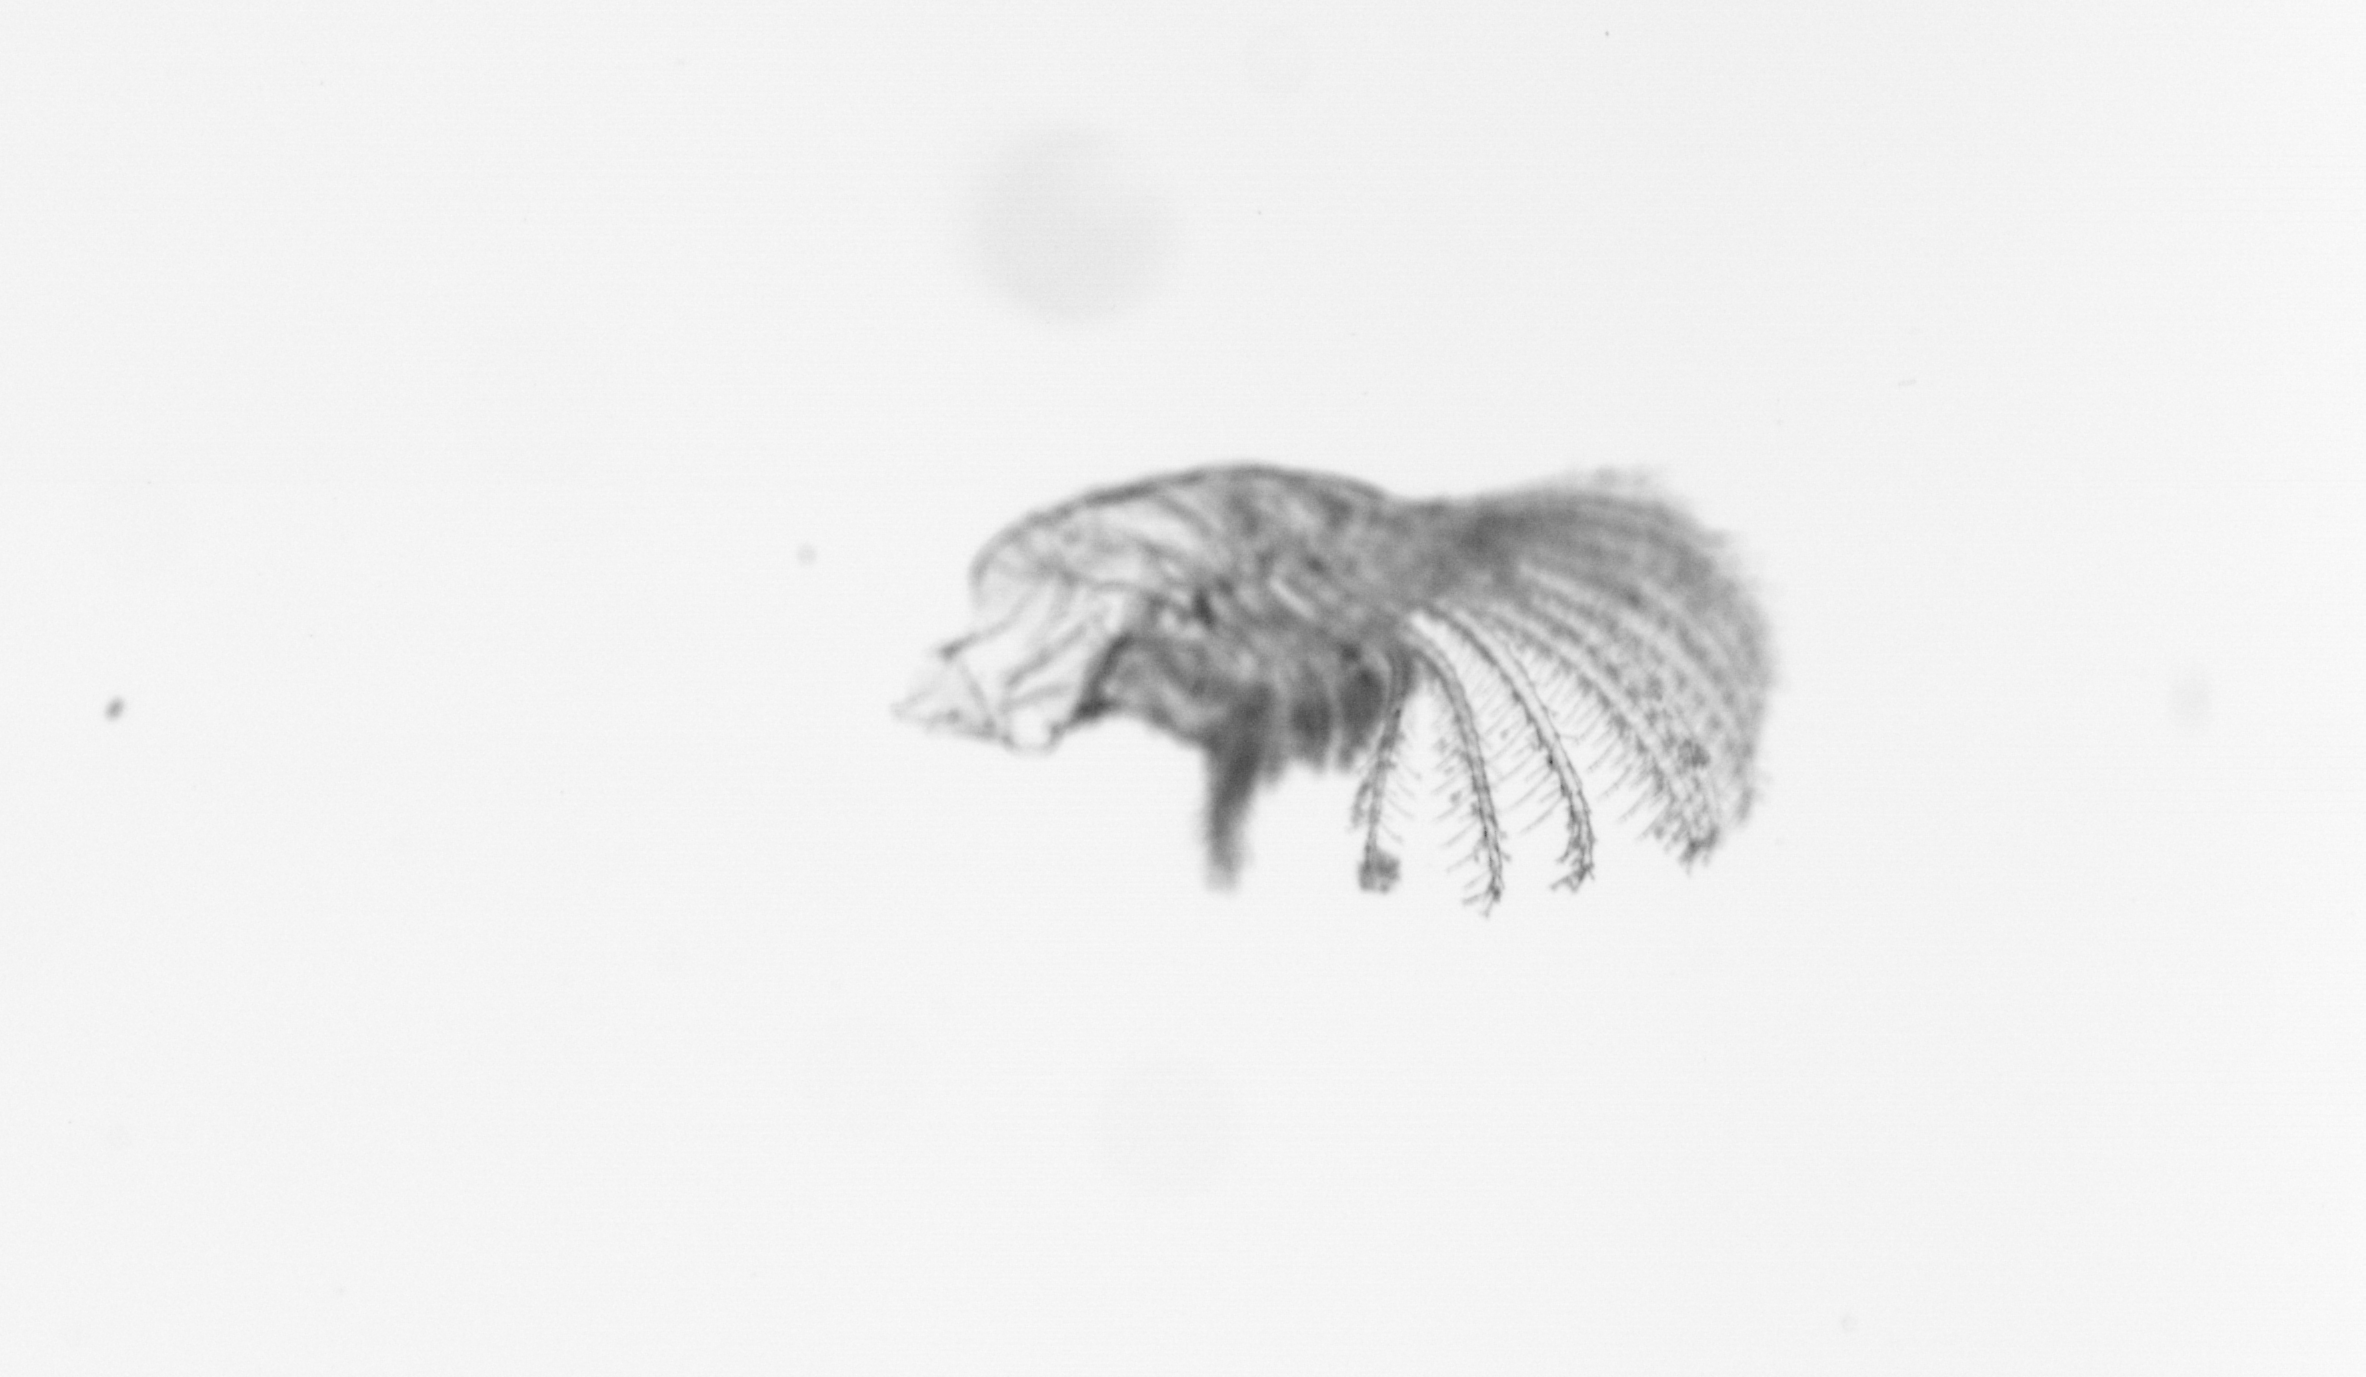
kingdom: Animalia
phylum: Arthropoda
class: Maxillopoda
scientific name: Maxillopoda
